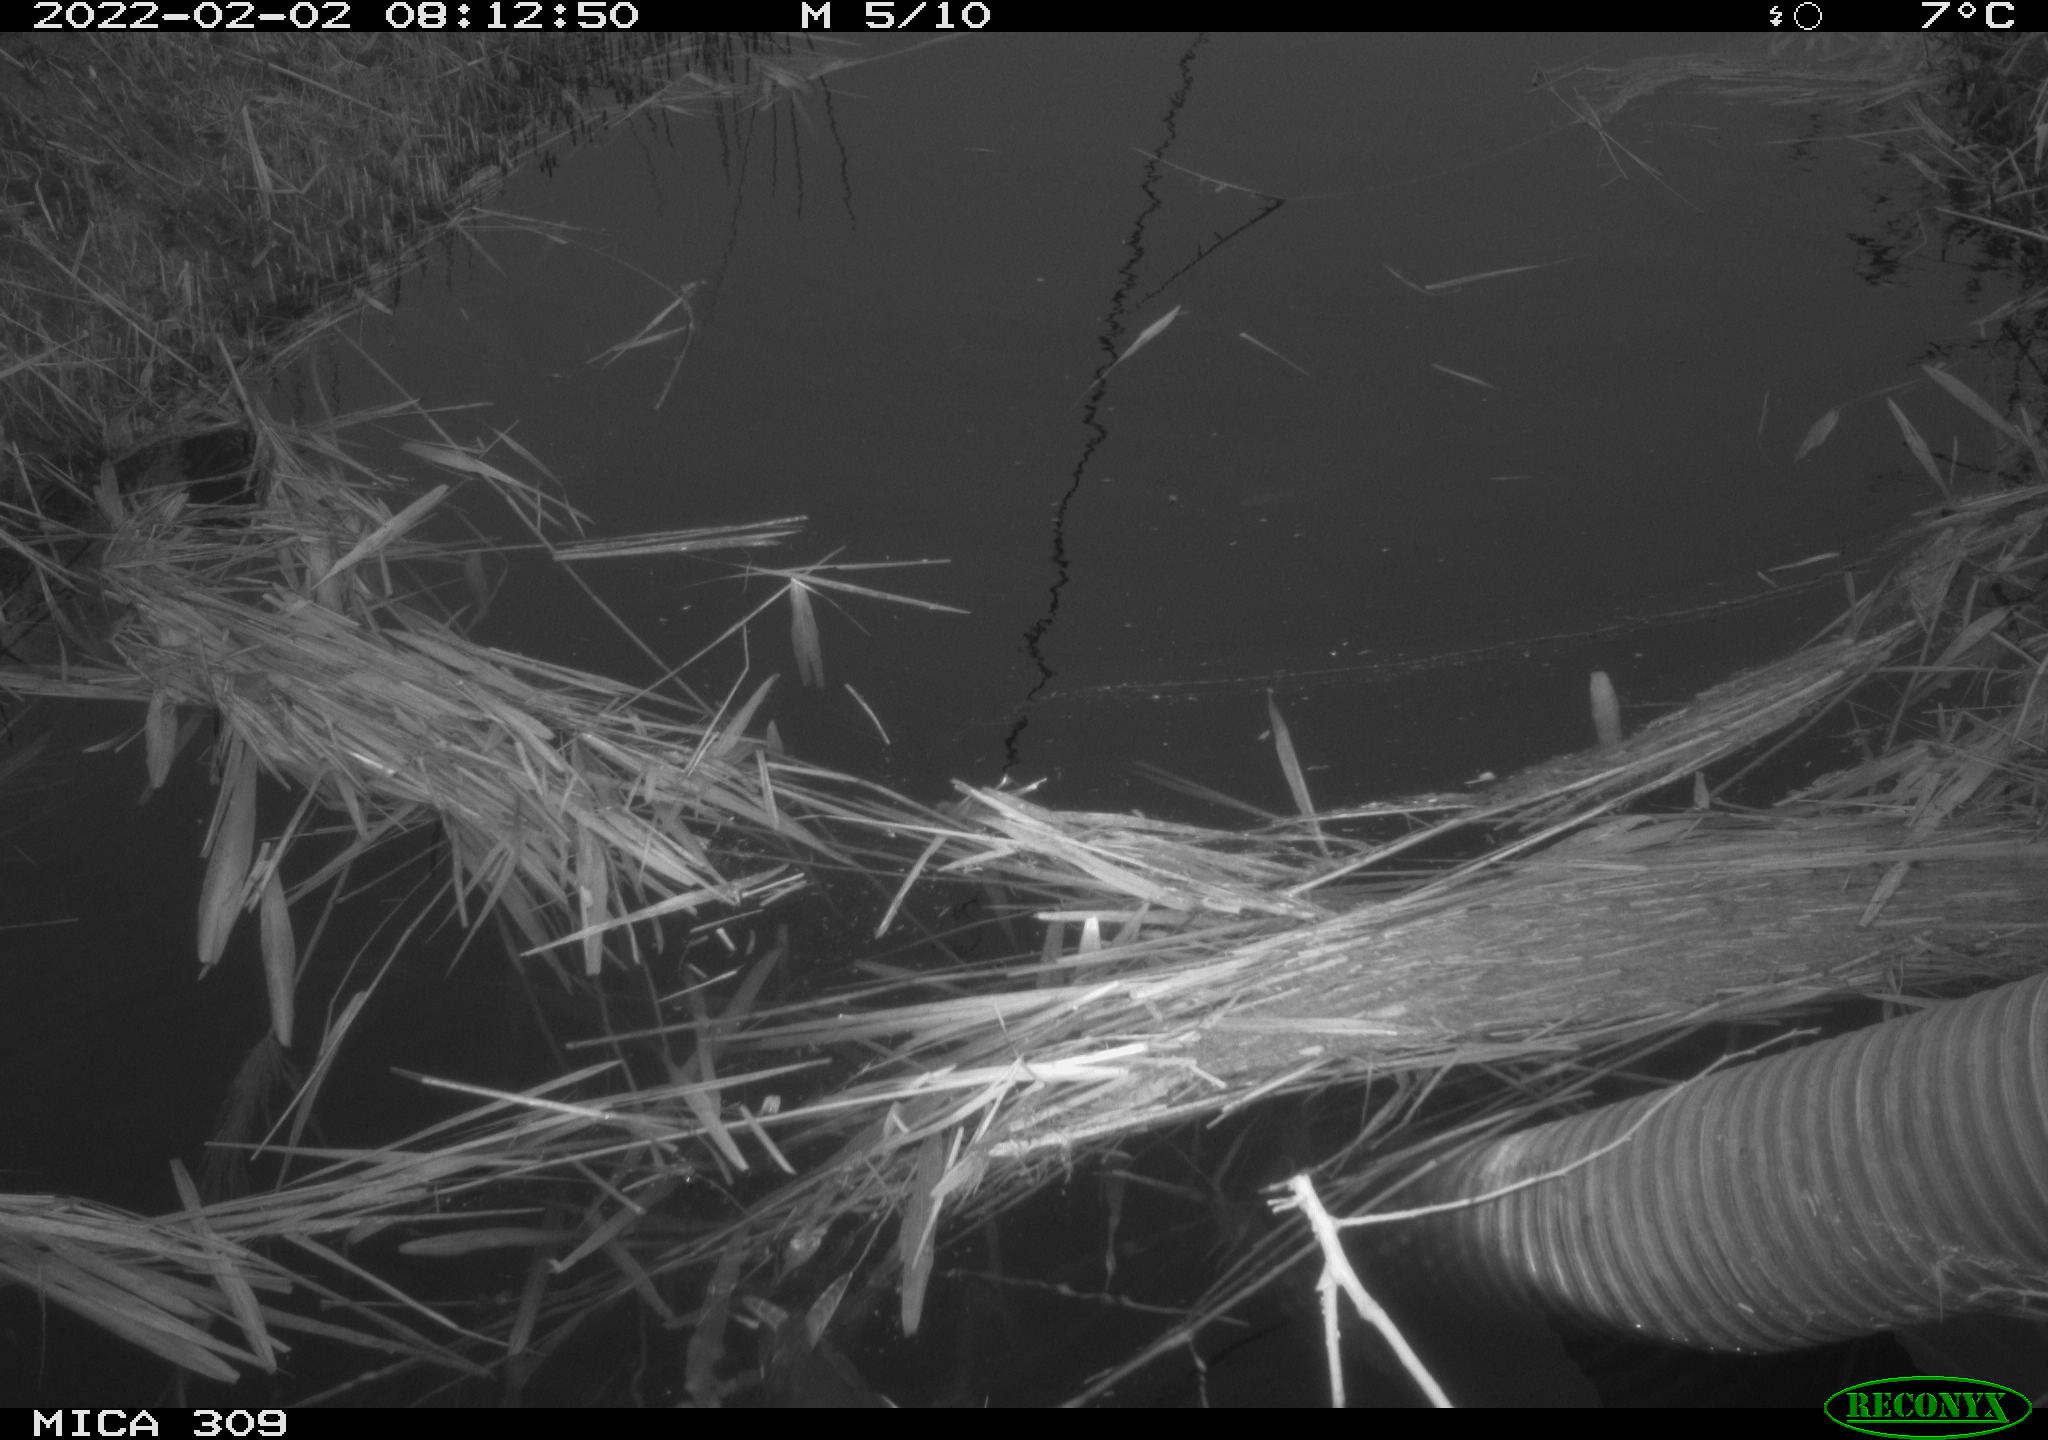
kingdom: Animalia
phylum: Chordata
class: Aves
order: Gruiformes
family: Rallidae
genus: Gallinula
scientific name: Gallinula chloropus
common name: Common moorhen
